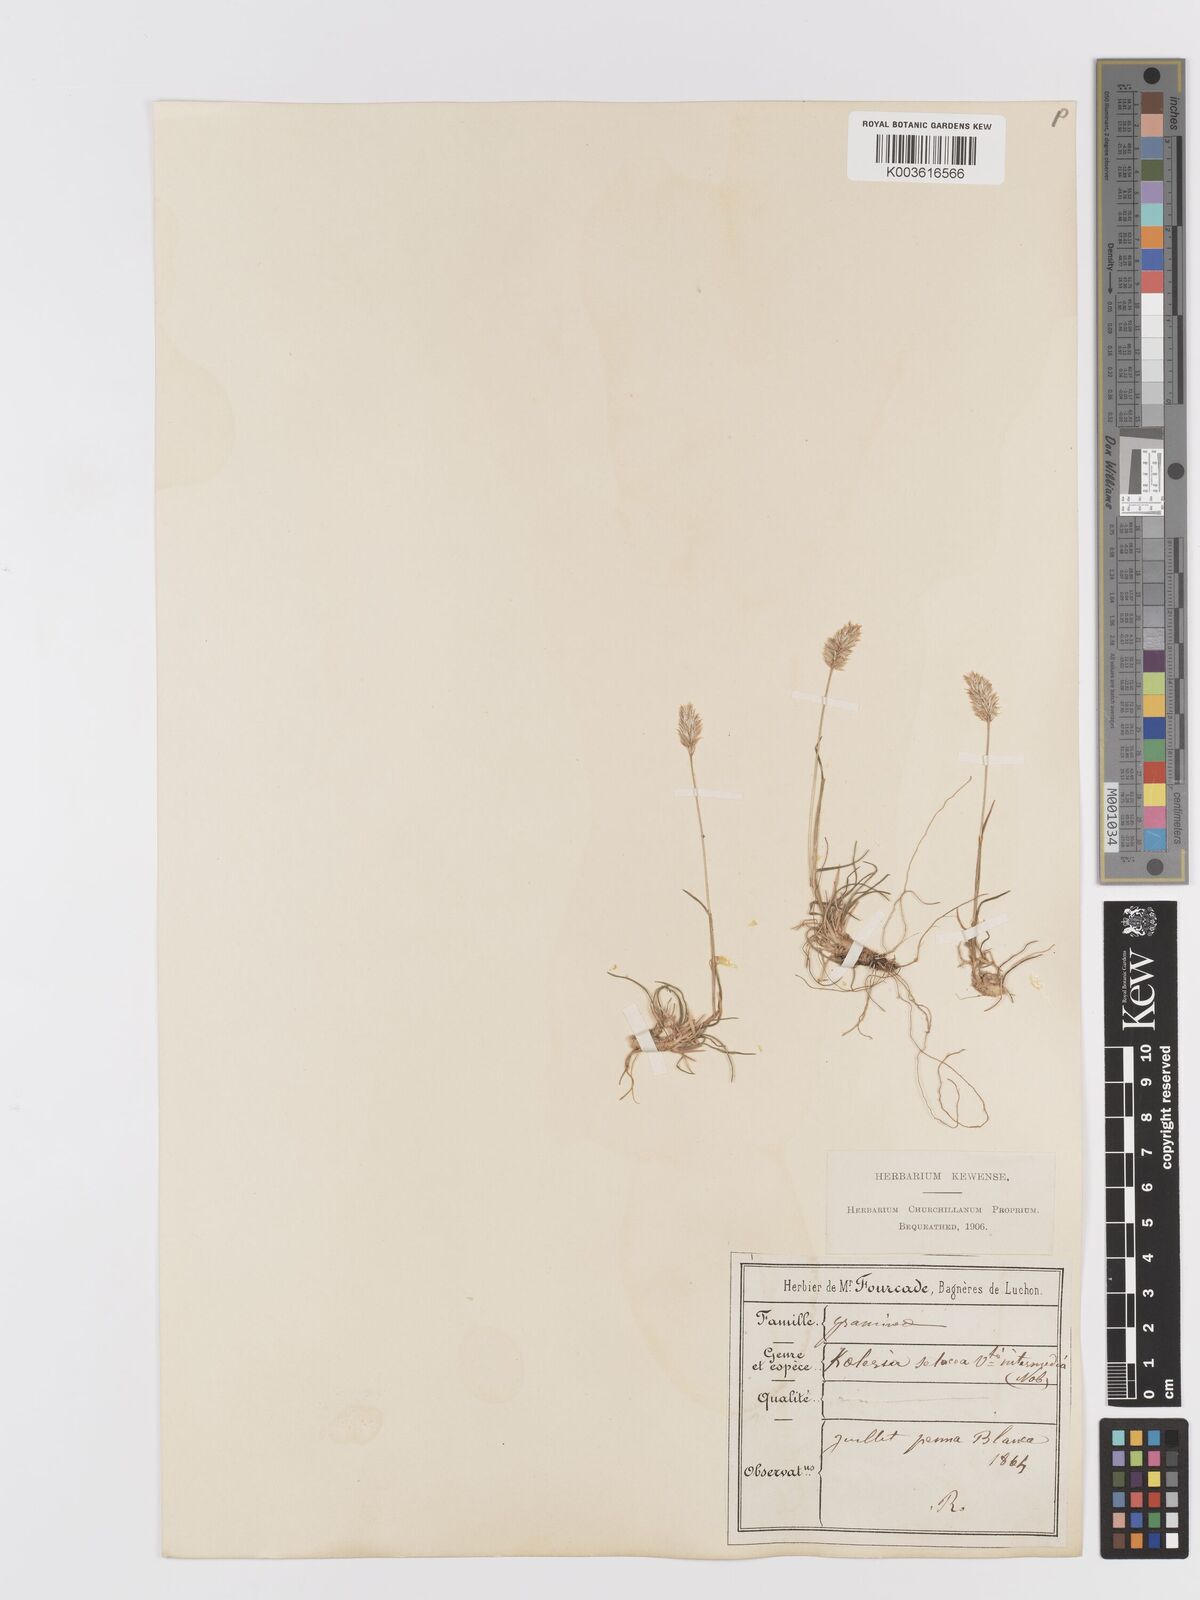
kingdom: Plantae
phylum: Tracheophyta
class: Liliopsida
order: Poales
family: Poaceae
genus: Koeleria
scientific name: Koeleria vallesiana
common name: Somerset hair-grass
